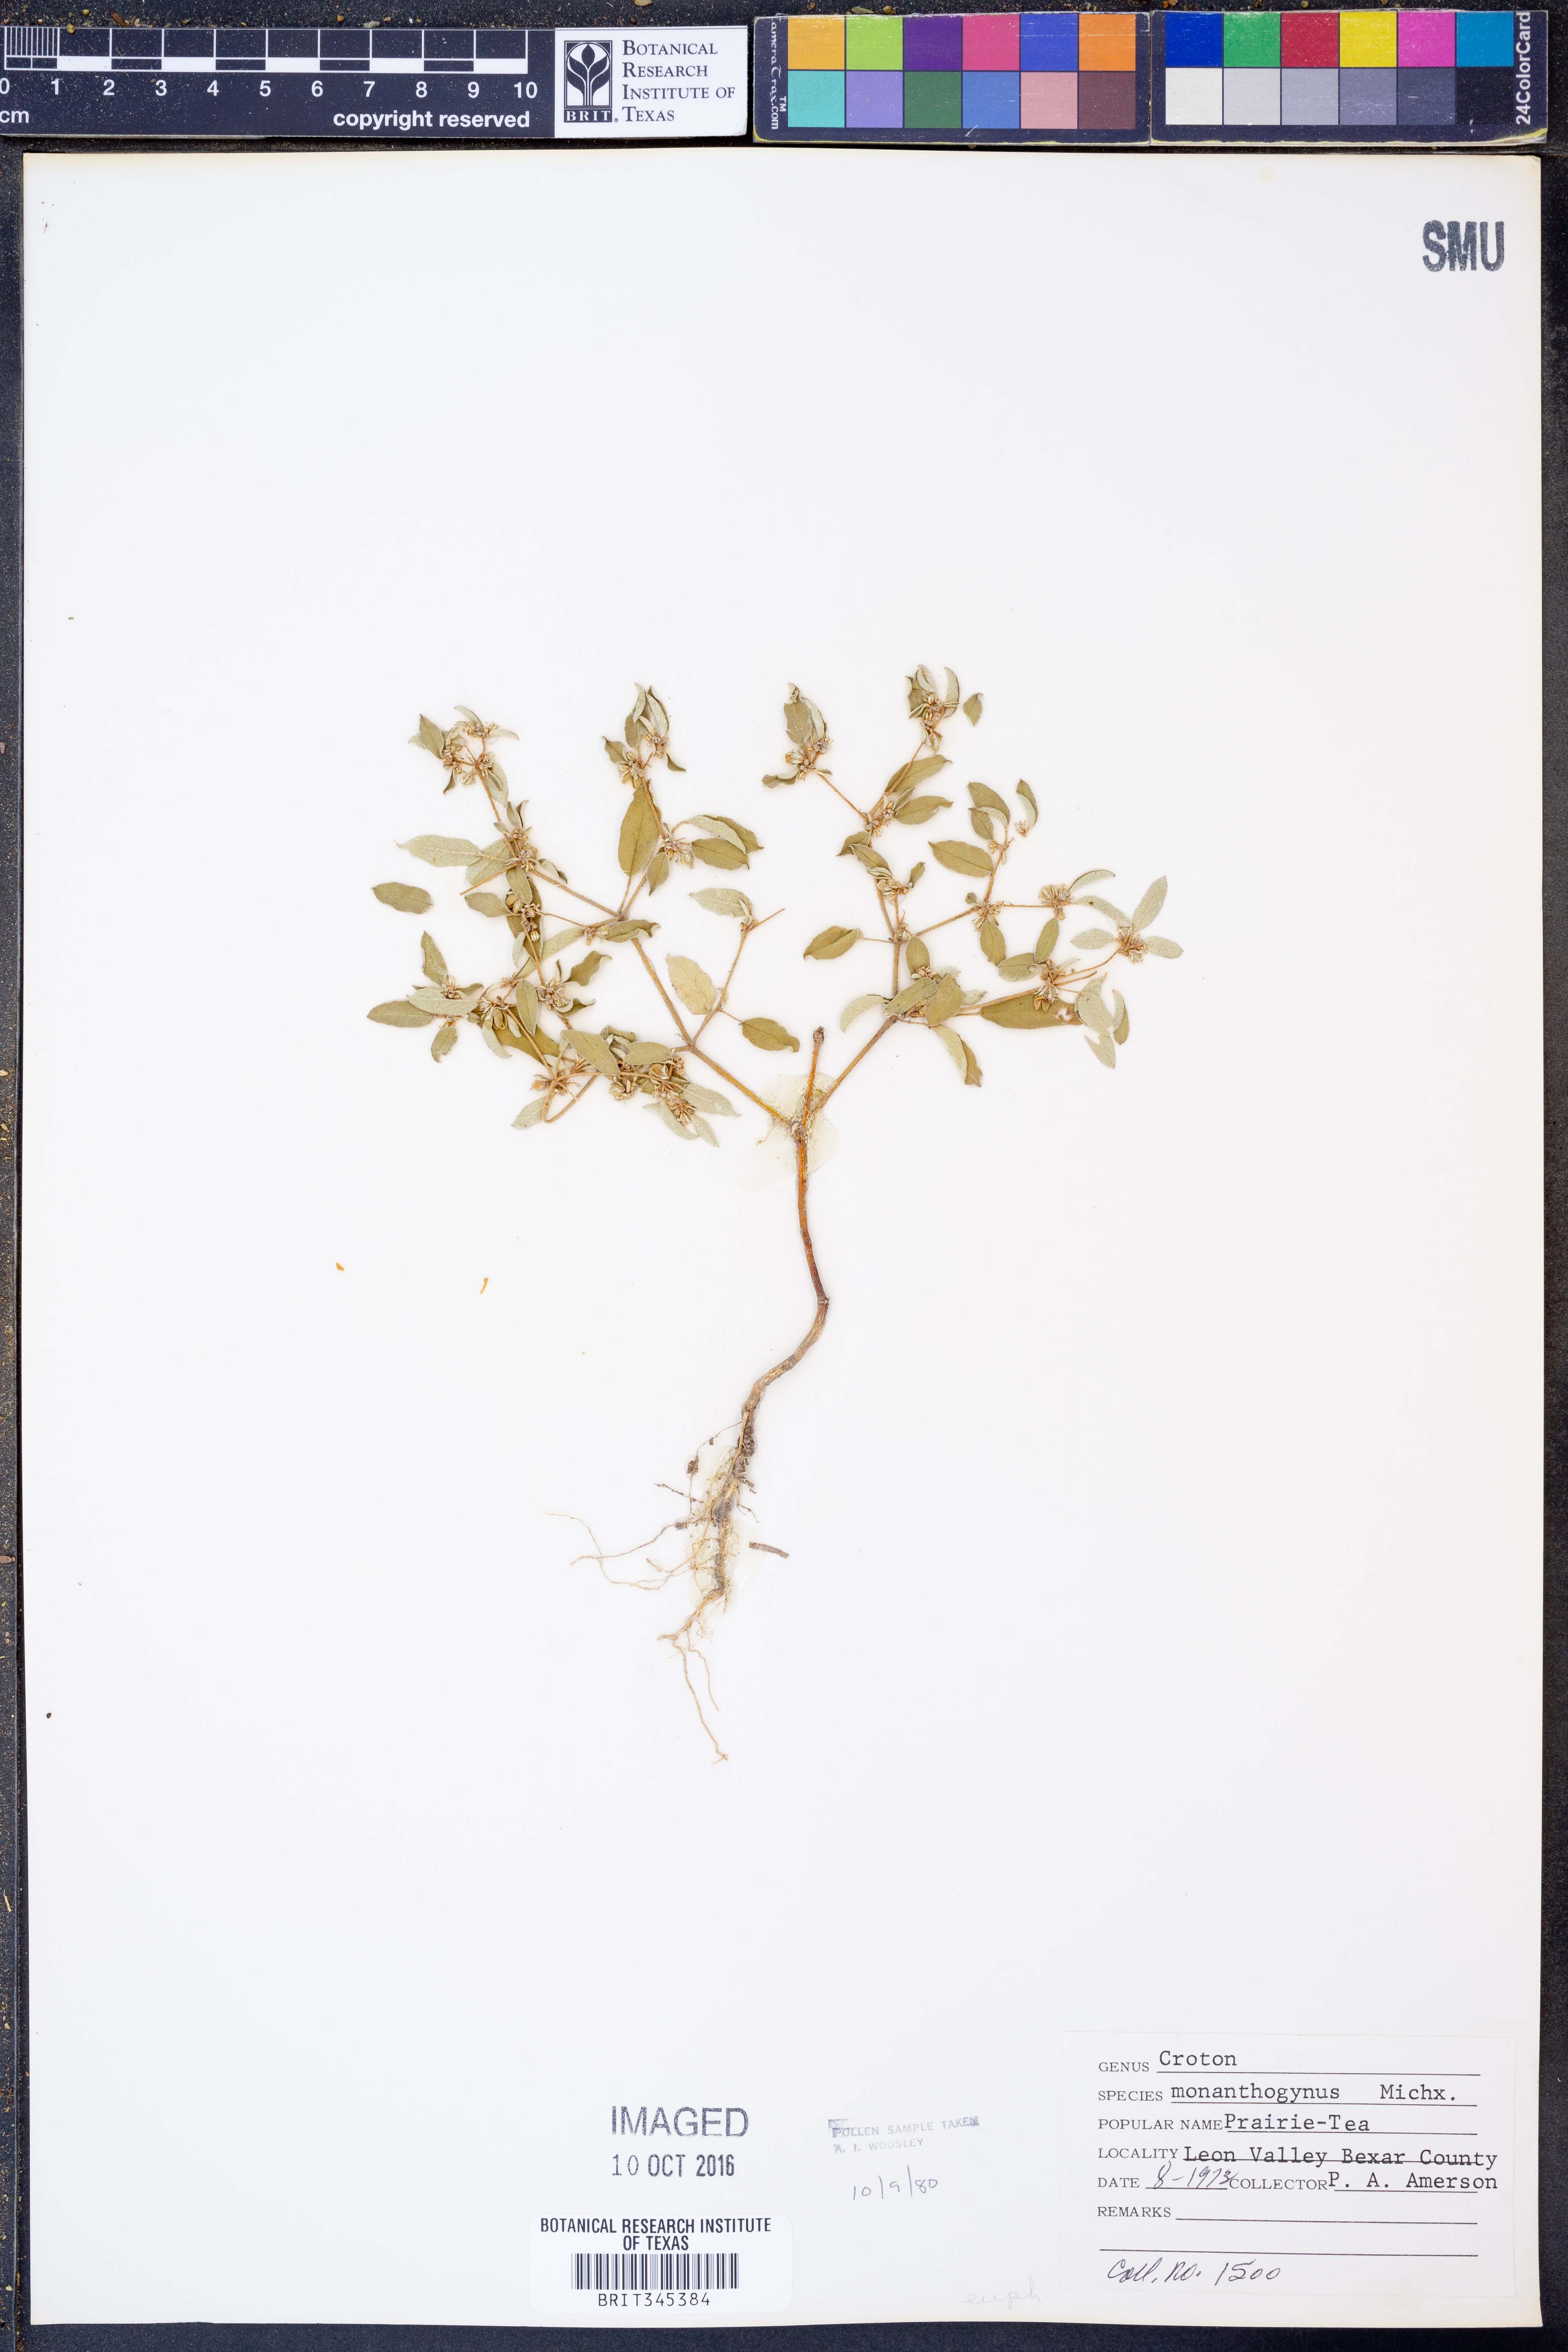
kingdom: Plantae
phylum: Tracheophyta
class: Magnoliopsida
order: Malpighiales
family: Euphorbiaceae
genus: Croton
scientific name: Croton monanthogynus
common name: One-seed croton
